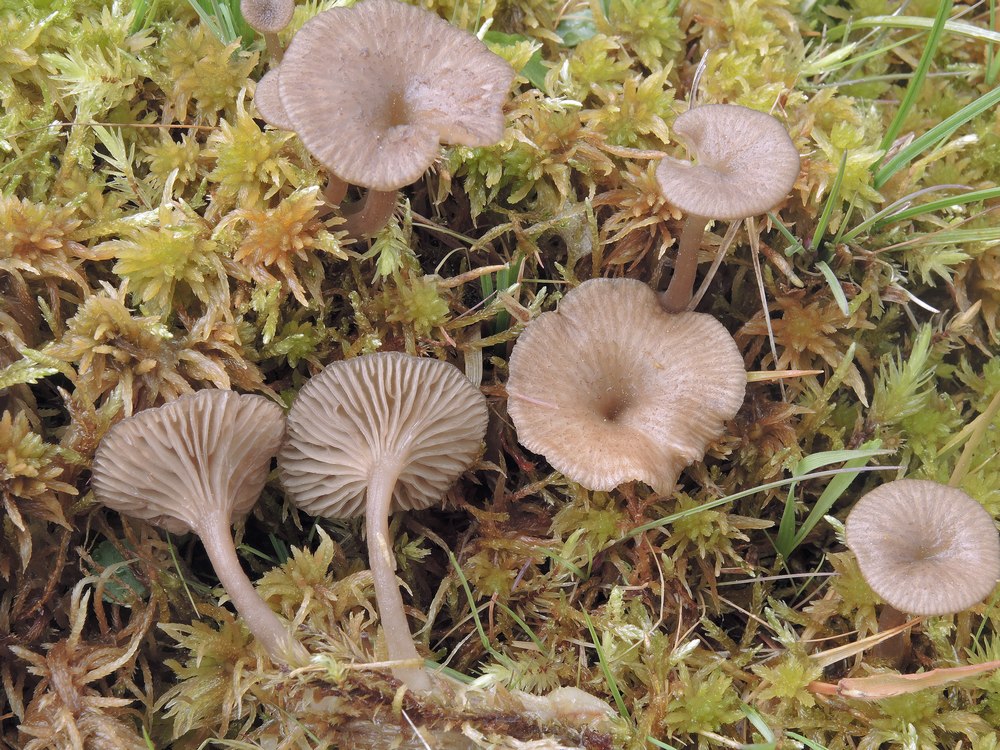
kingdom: Fungi
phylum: Basidiomycota
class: Agaricomycetes
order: Agaricales
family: Hygrophoraceae
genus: Arrhenia
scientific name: Arrhenia gerardiana
